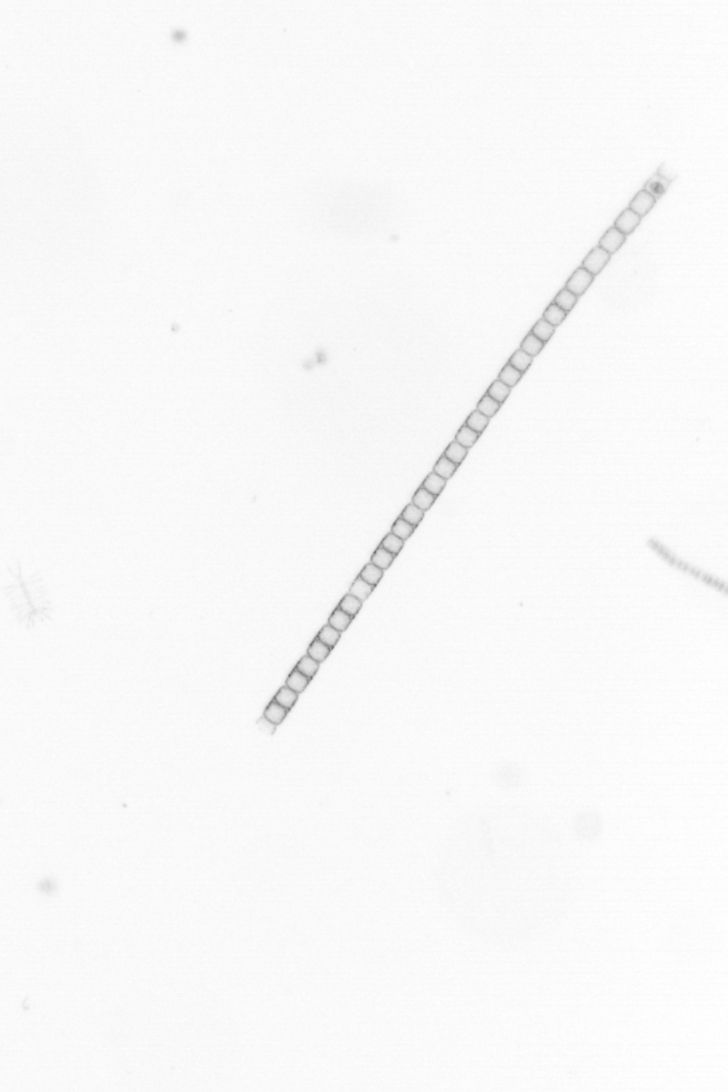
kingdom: Chromista
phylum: Ochrophyta
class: Bacillariophyceae
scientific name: Bacillariophyceae
